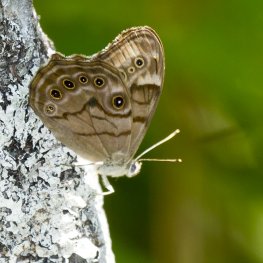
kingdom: Animalia
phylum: Arthropoda
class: Insecta
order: Lepidoptera
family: Nymphalidae
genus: Lethe
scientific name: Lethe anthedon
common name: Northern Pearly-Eye
